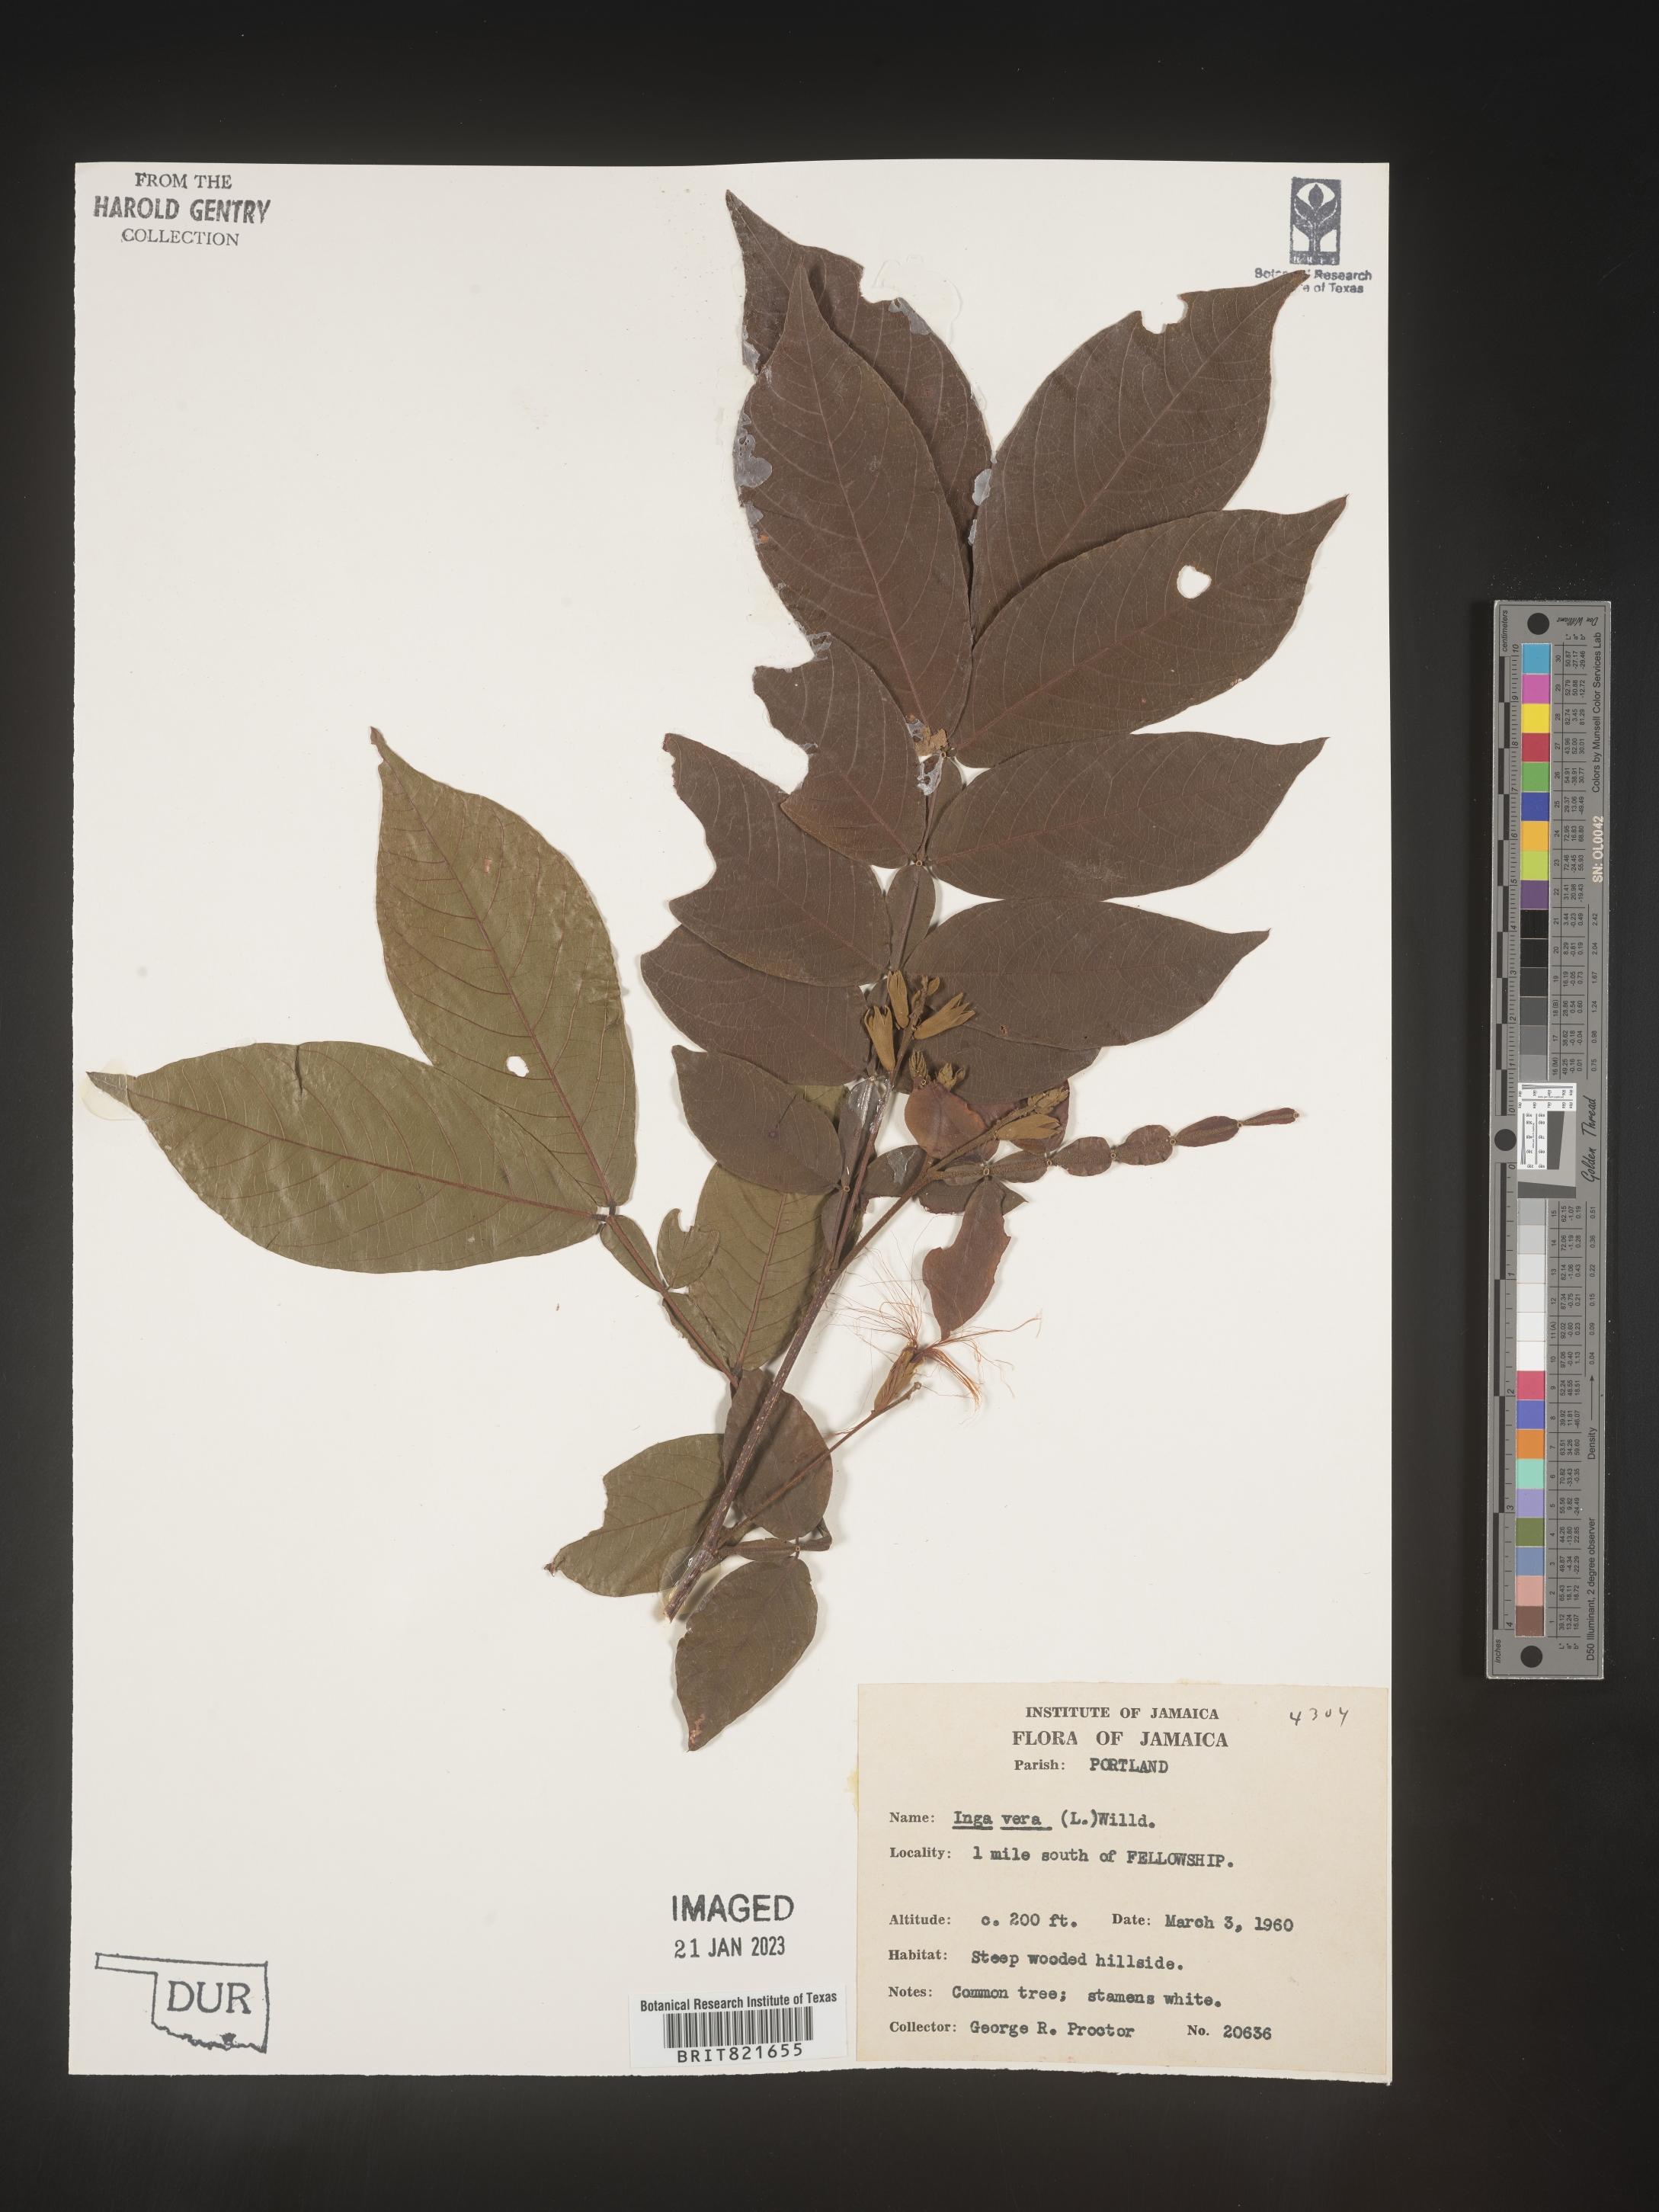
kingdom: Plantae
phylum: Tracheophyta
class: Magnoliopsida
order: Fabales
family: Fabaceae
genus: Inga
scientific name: Inga
